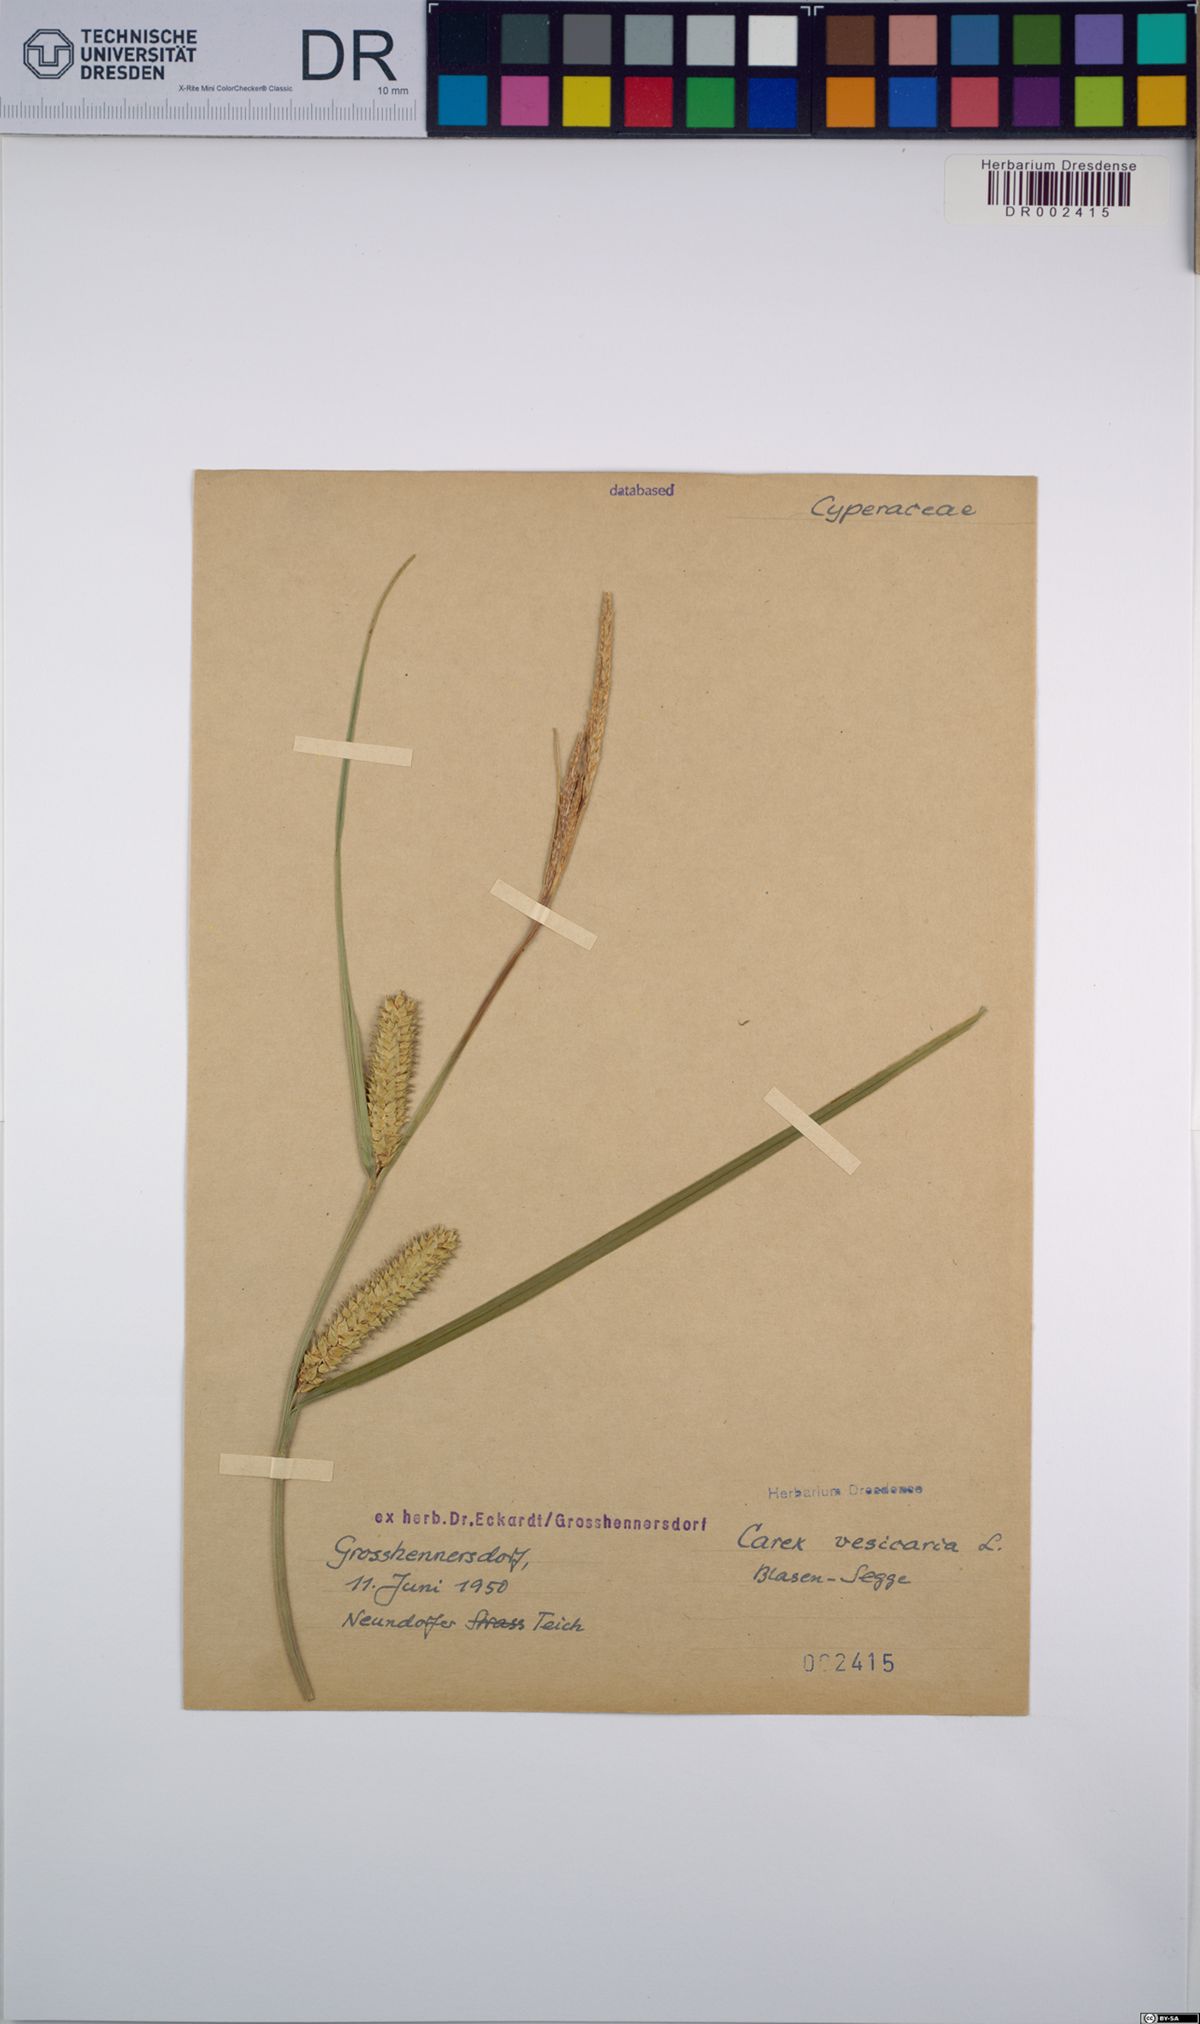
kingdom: Plantae
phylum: Tracheophyta
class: Liliopsida
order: Poales
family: Cyperaceae
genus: Carex
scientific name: Carex vesicaria
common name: Bladder-sedge
